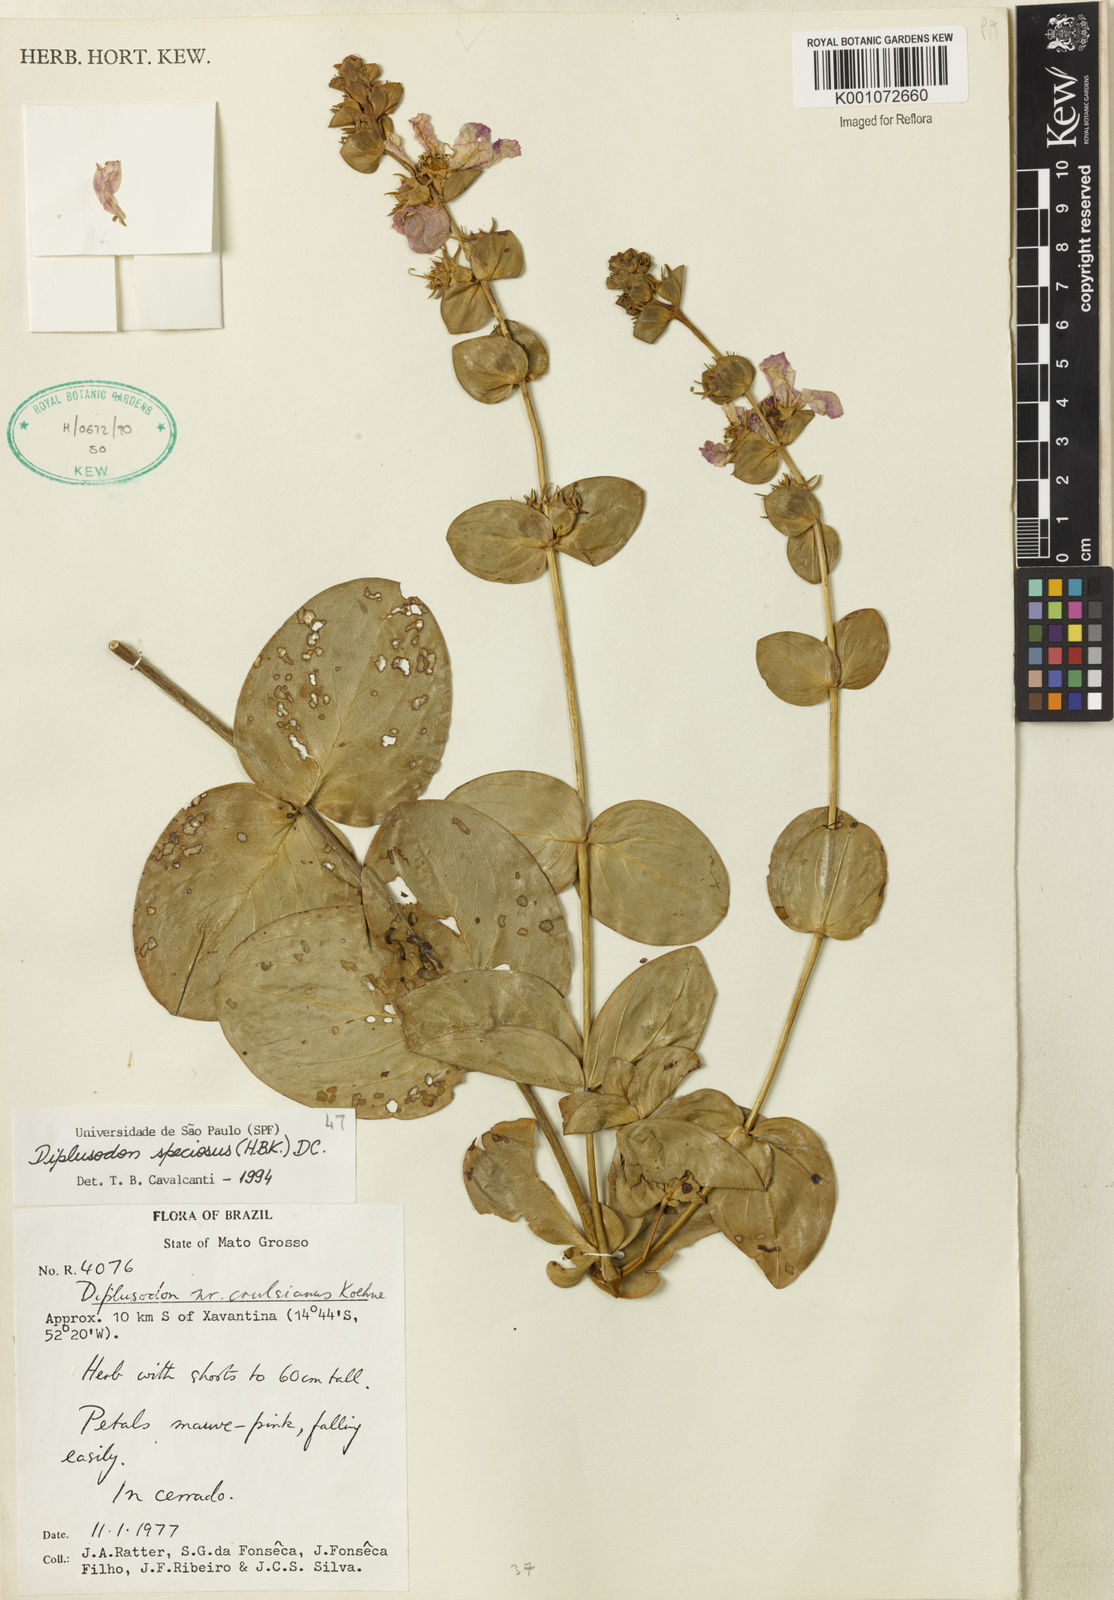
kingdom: Plantae
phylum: Tracheophyta
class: Magnoliopsida
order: Myrtales
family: Lythraceae
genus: Diplusodon
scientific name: Diplusodon speciosus
